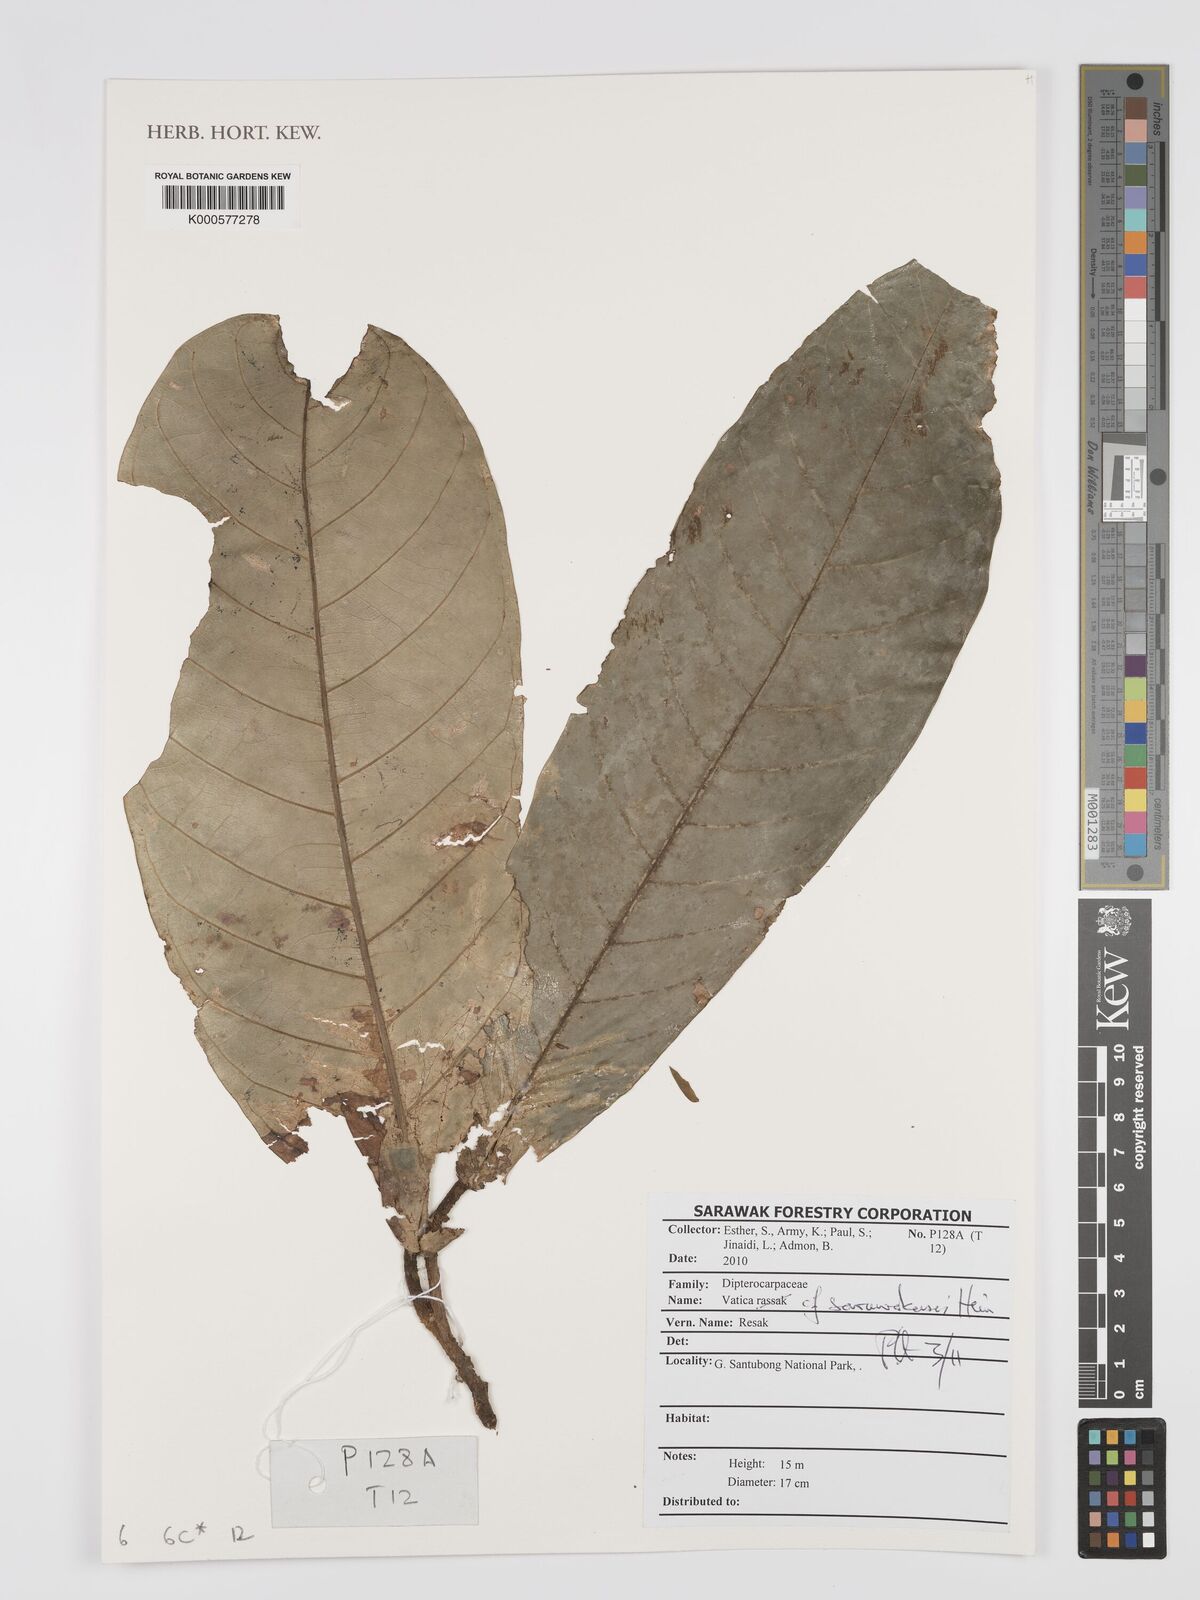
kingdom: Plantae
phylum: Tracheophyta
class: Magnoliopsida
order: Malvales
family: Dipterocarpaceae
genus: Vatica
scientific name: Vatica sarawakensis
